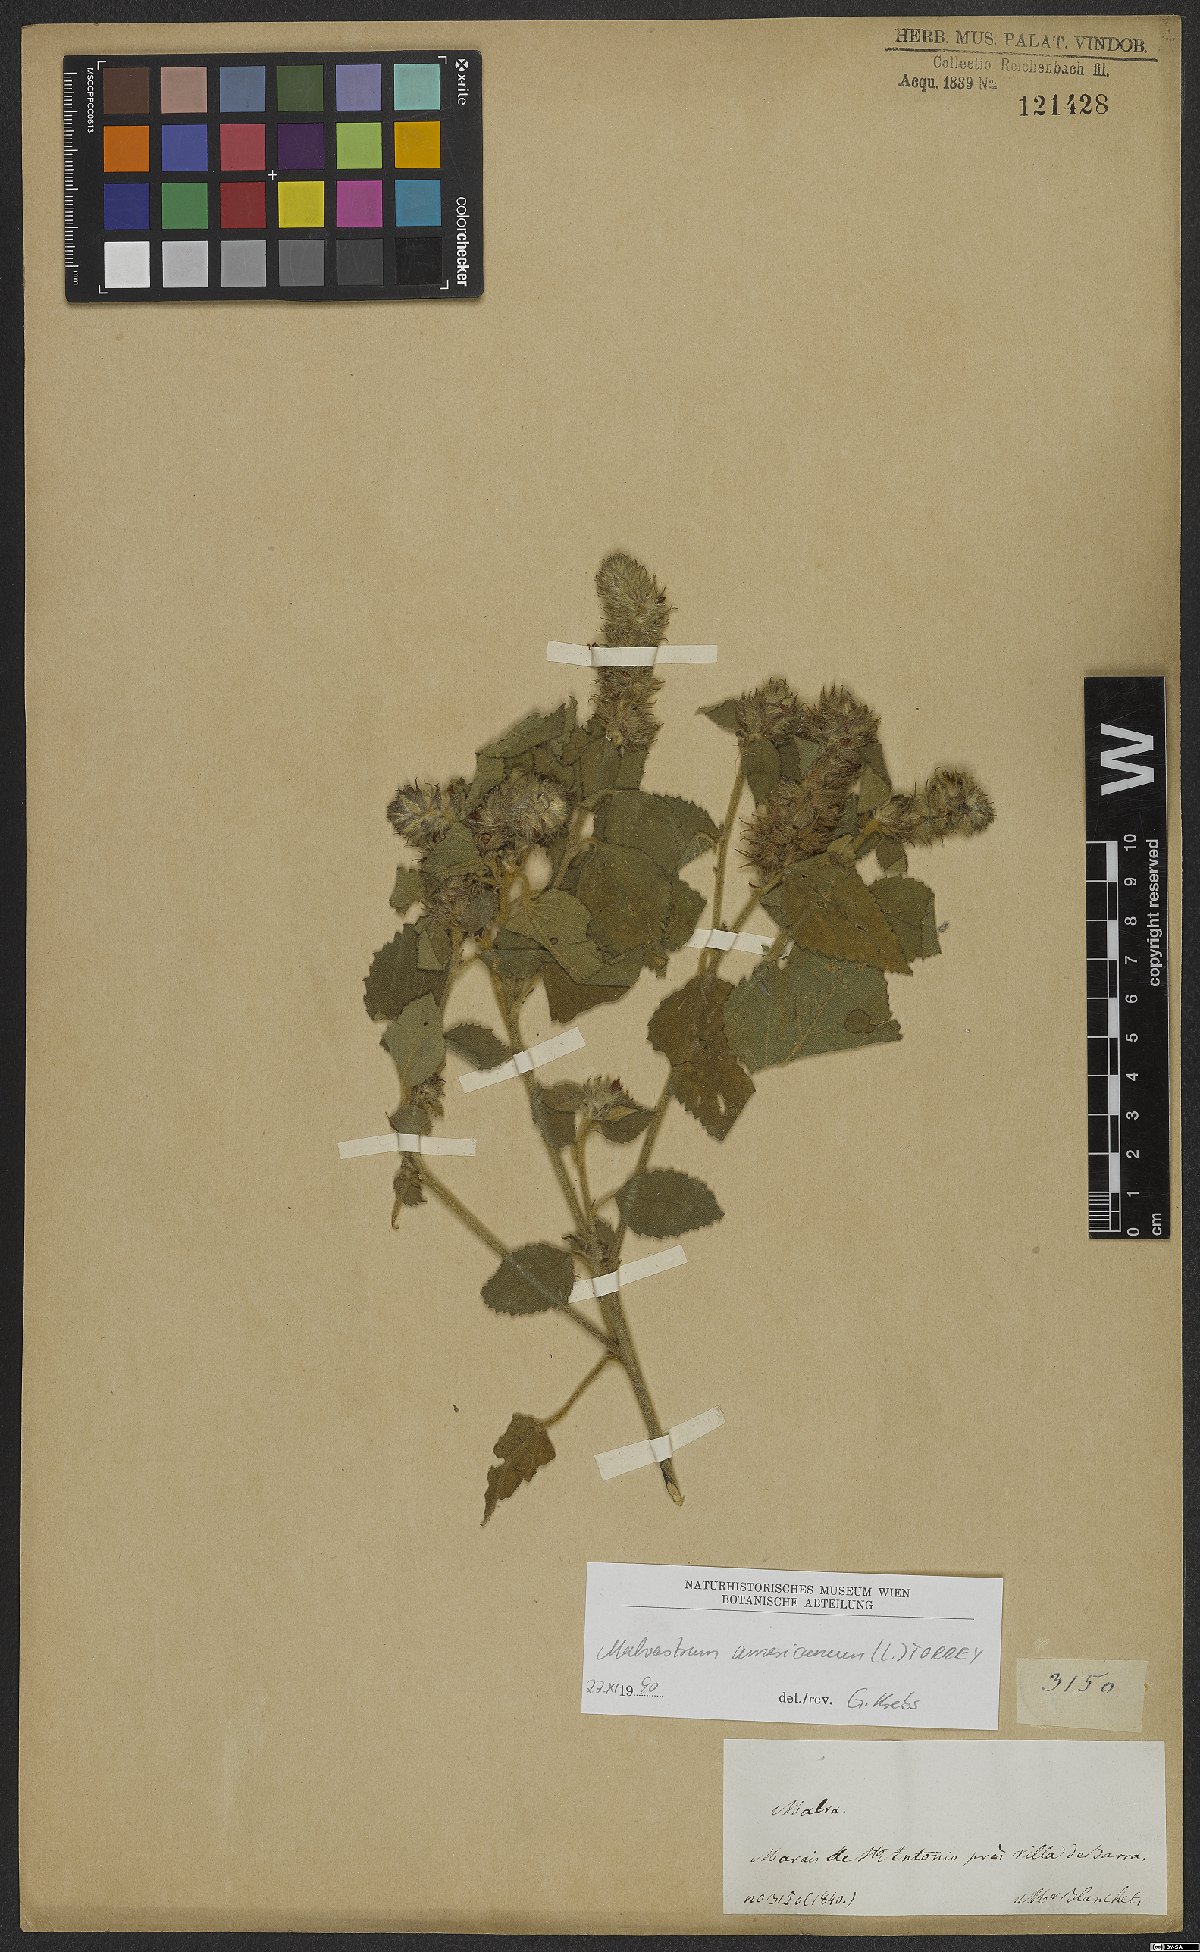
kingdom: Plantae
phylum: Tracheophyta
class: Magnoliopsida
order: Malvales
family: Malvaceae
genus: Malvastrum
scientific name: Malvastrum americanum
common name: Spiked malvastrum
